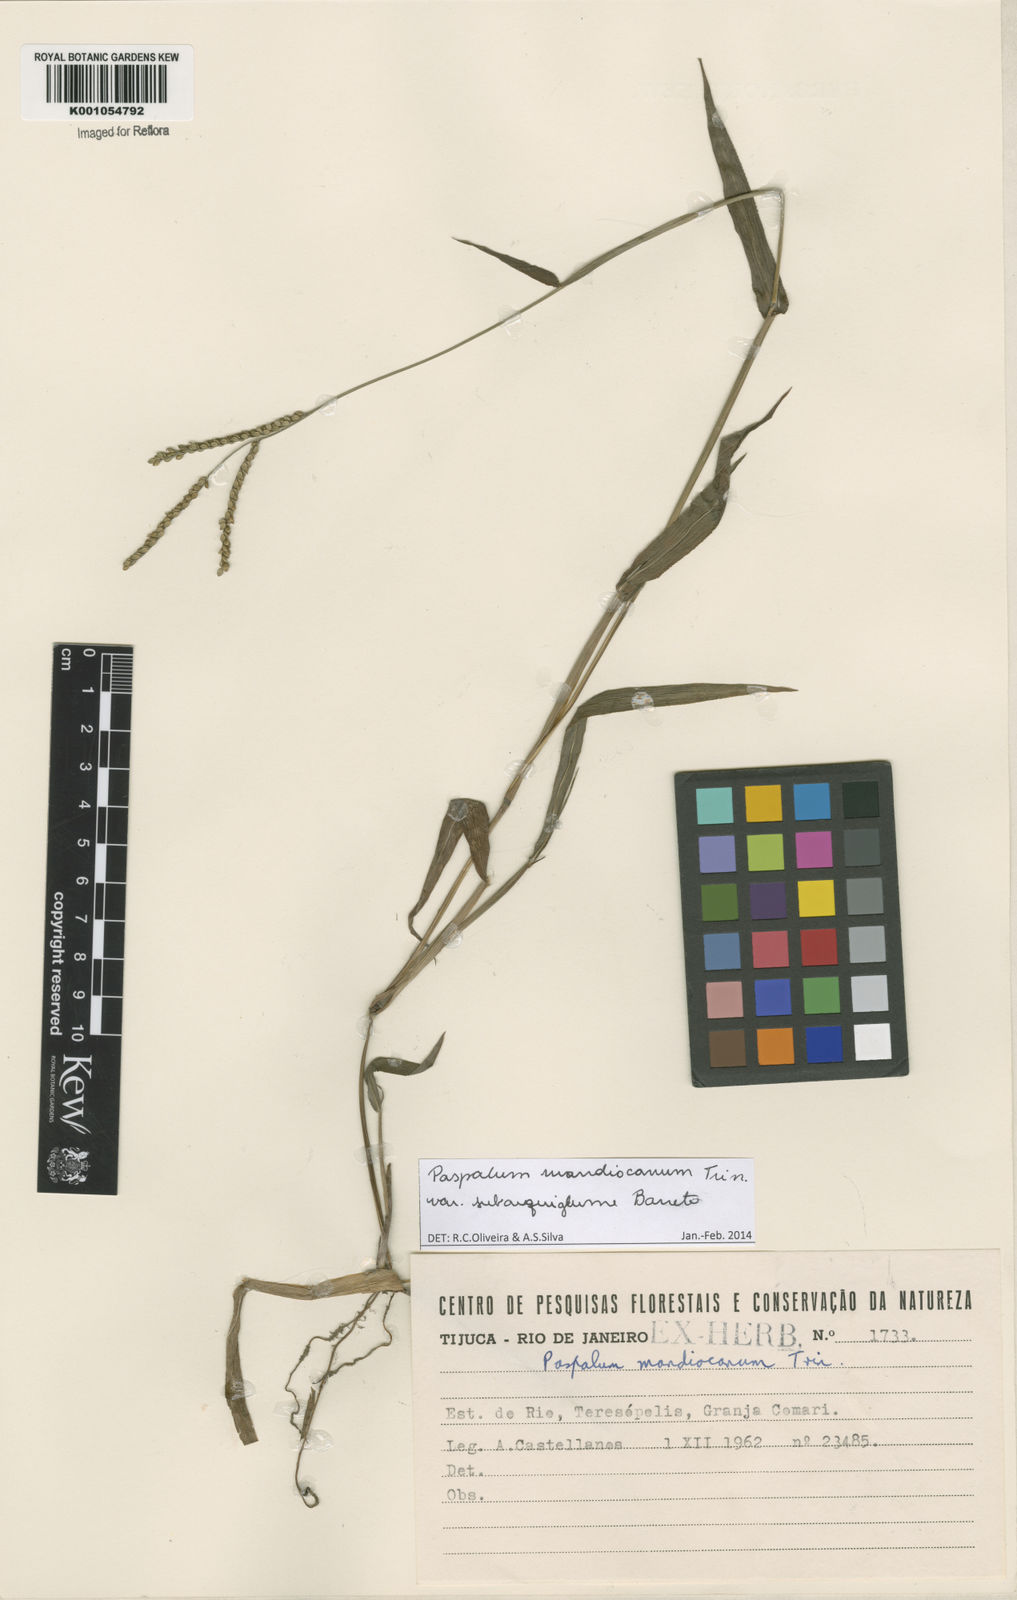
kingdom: Plantae
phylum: Tracheophyta
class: Liliopsida
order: Poales
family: Poaceae
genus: Paspalum
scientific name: Paspalum mandiocanum
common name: Paspalum
